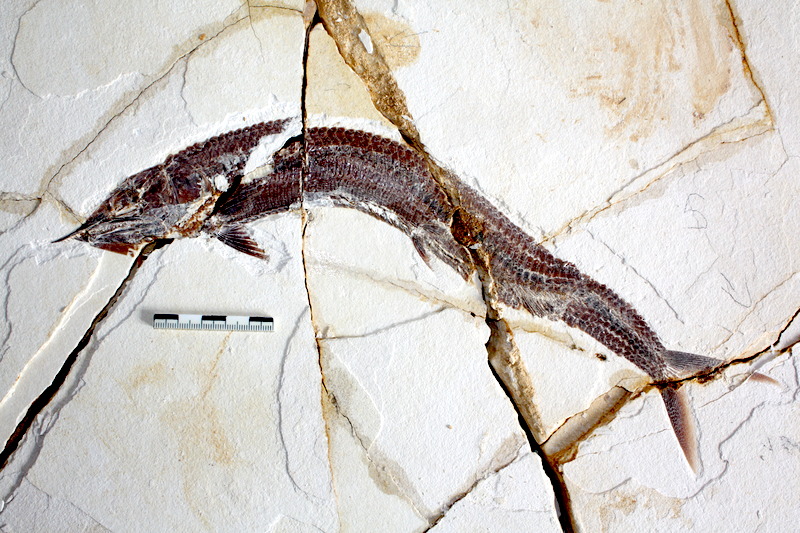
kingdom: Animalia
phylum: Chordata
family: Aspidorhynchidae
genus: Aspidorhynchus
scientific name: Aspidorhynchus sanzenbacheri
